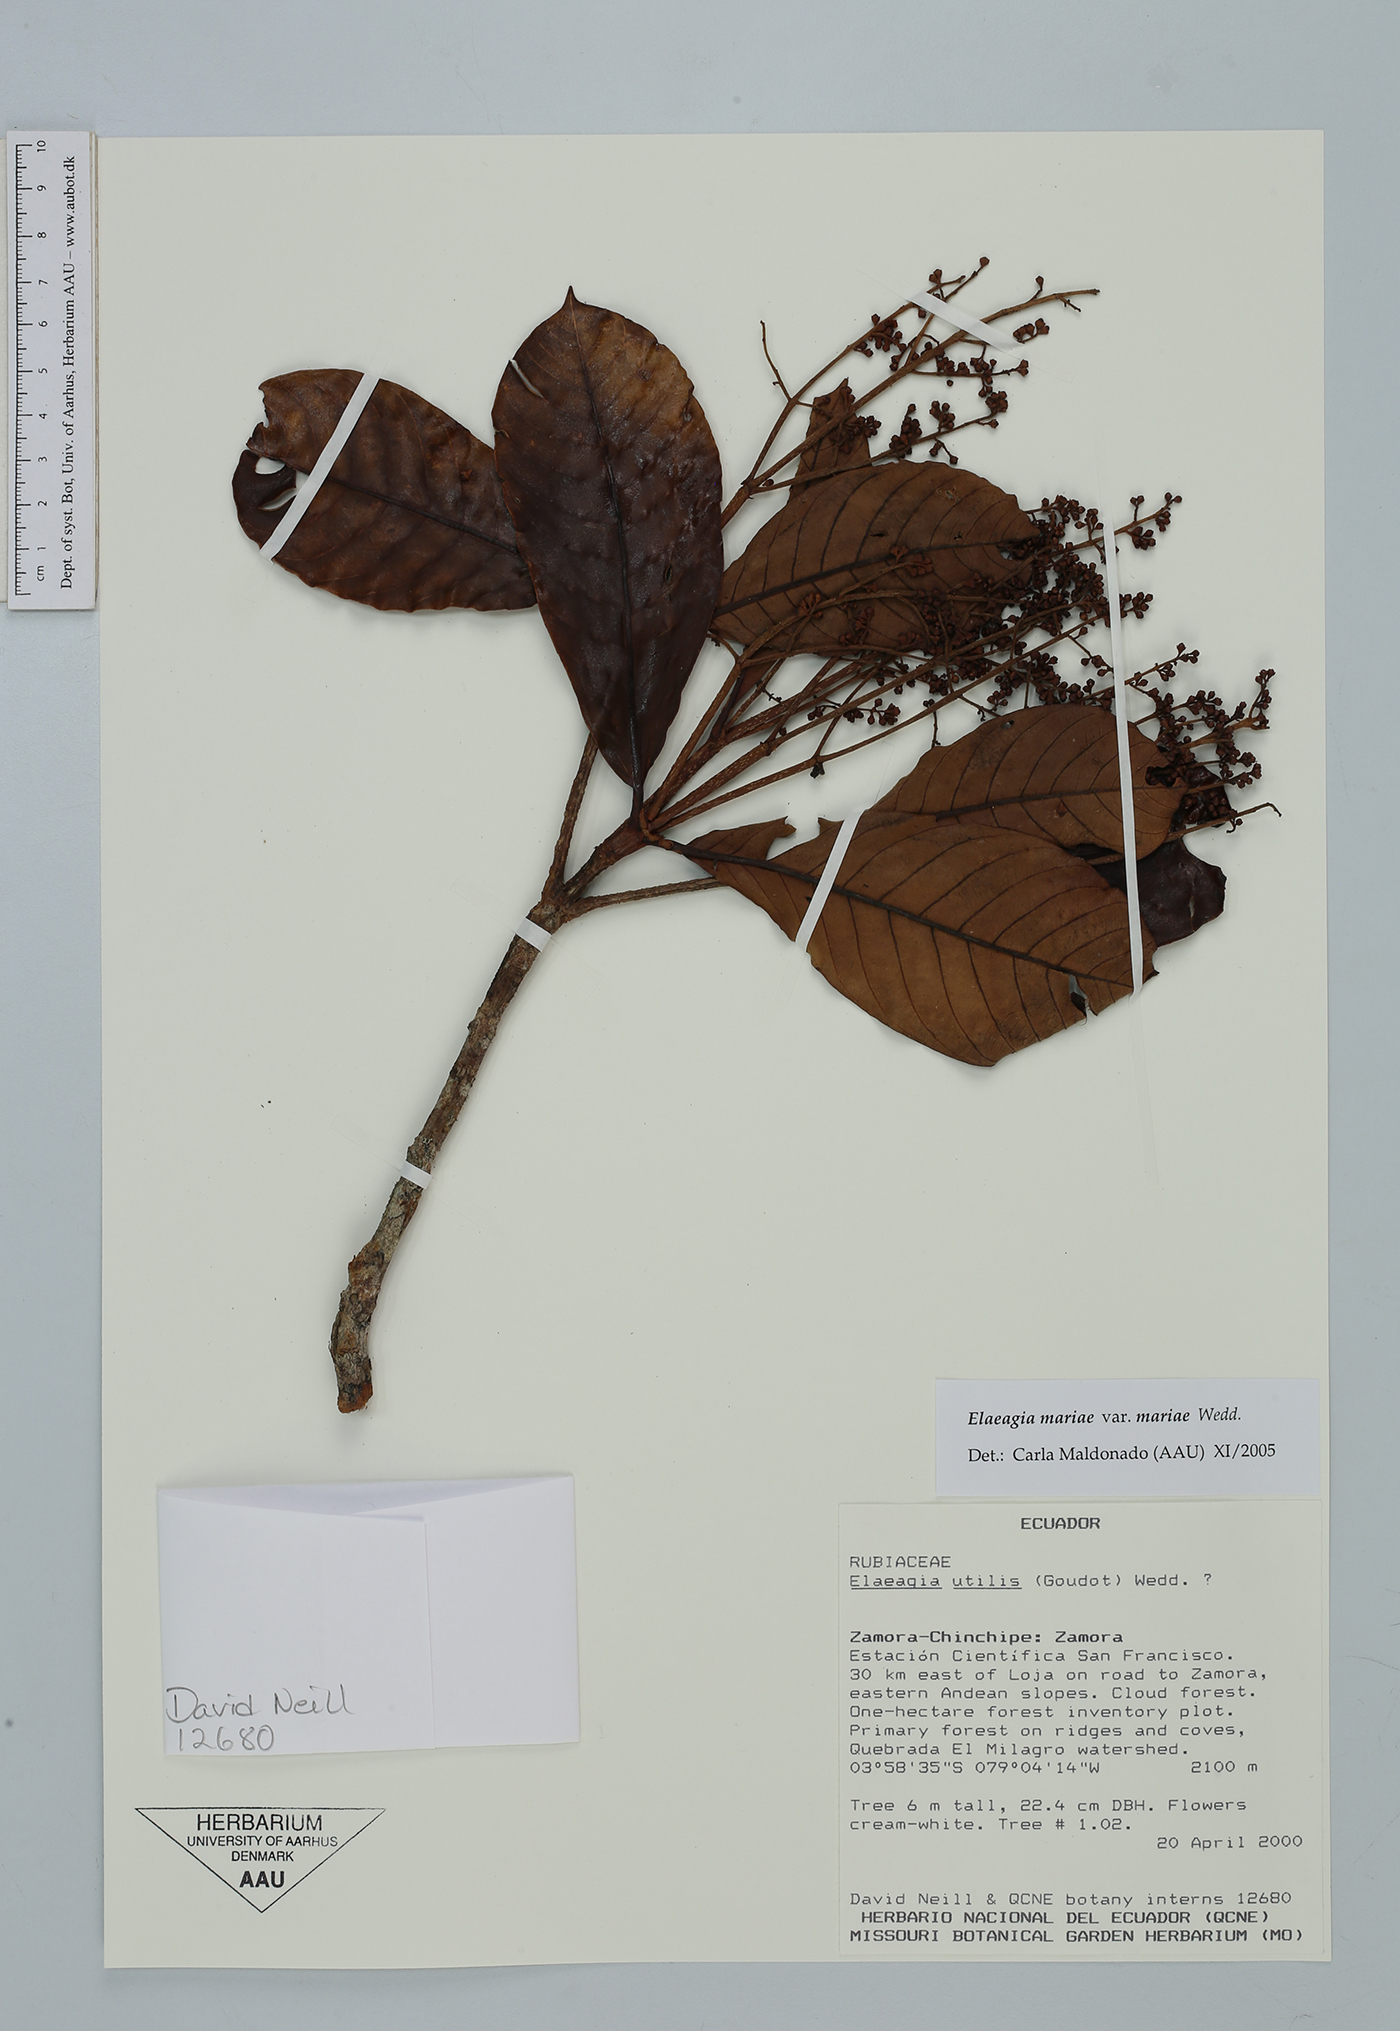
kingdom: Plantae
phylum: Tracheophyta
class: Magnoliopsida
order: Gentianales
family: Rubiaceae
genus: Elaeagia
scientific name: Elaeagia mariae
